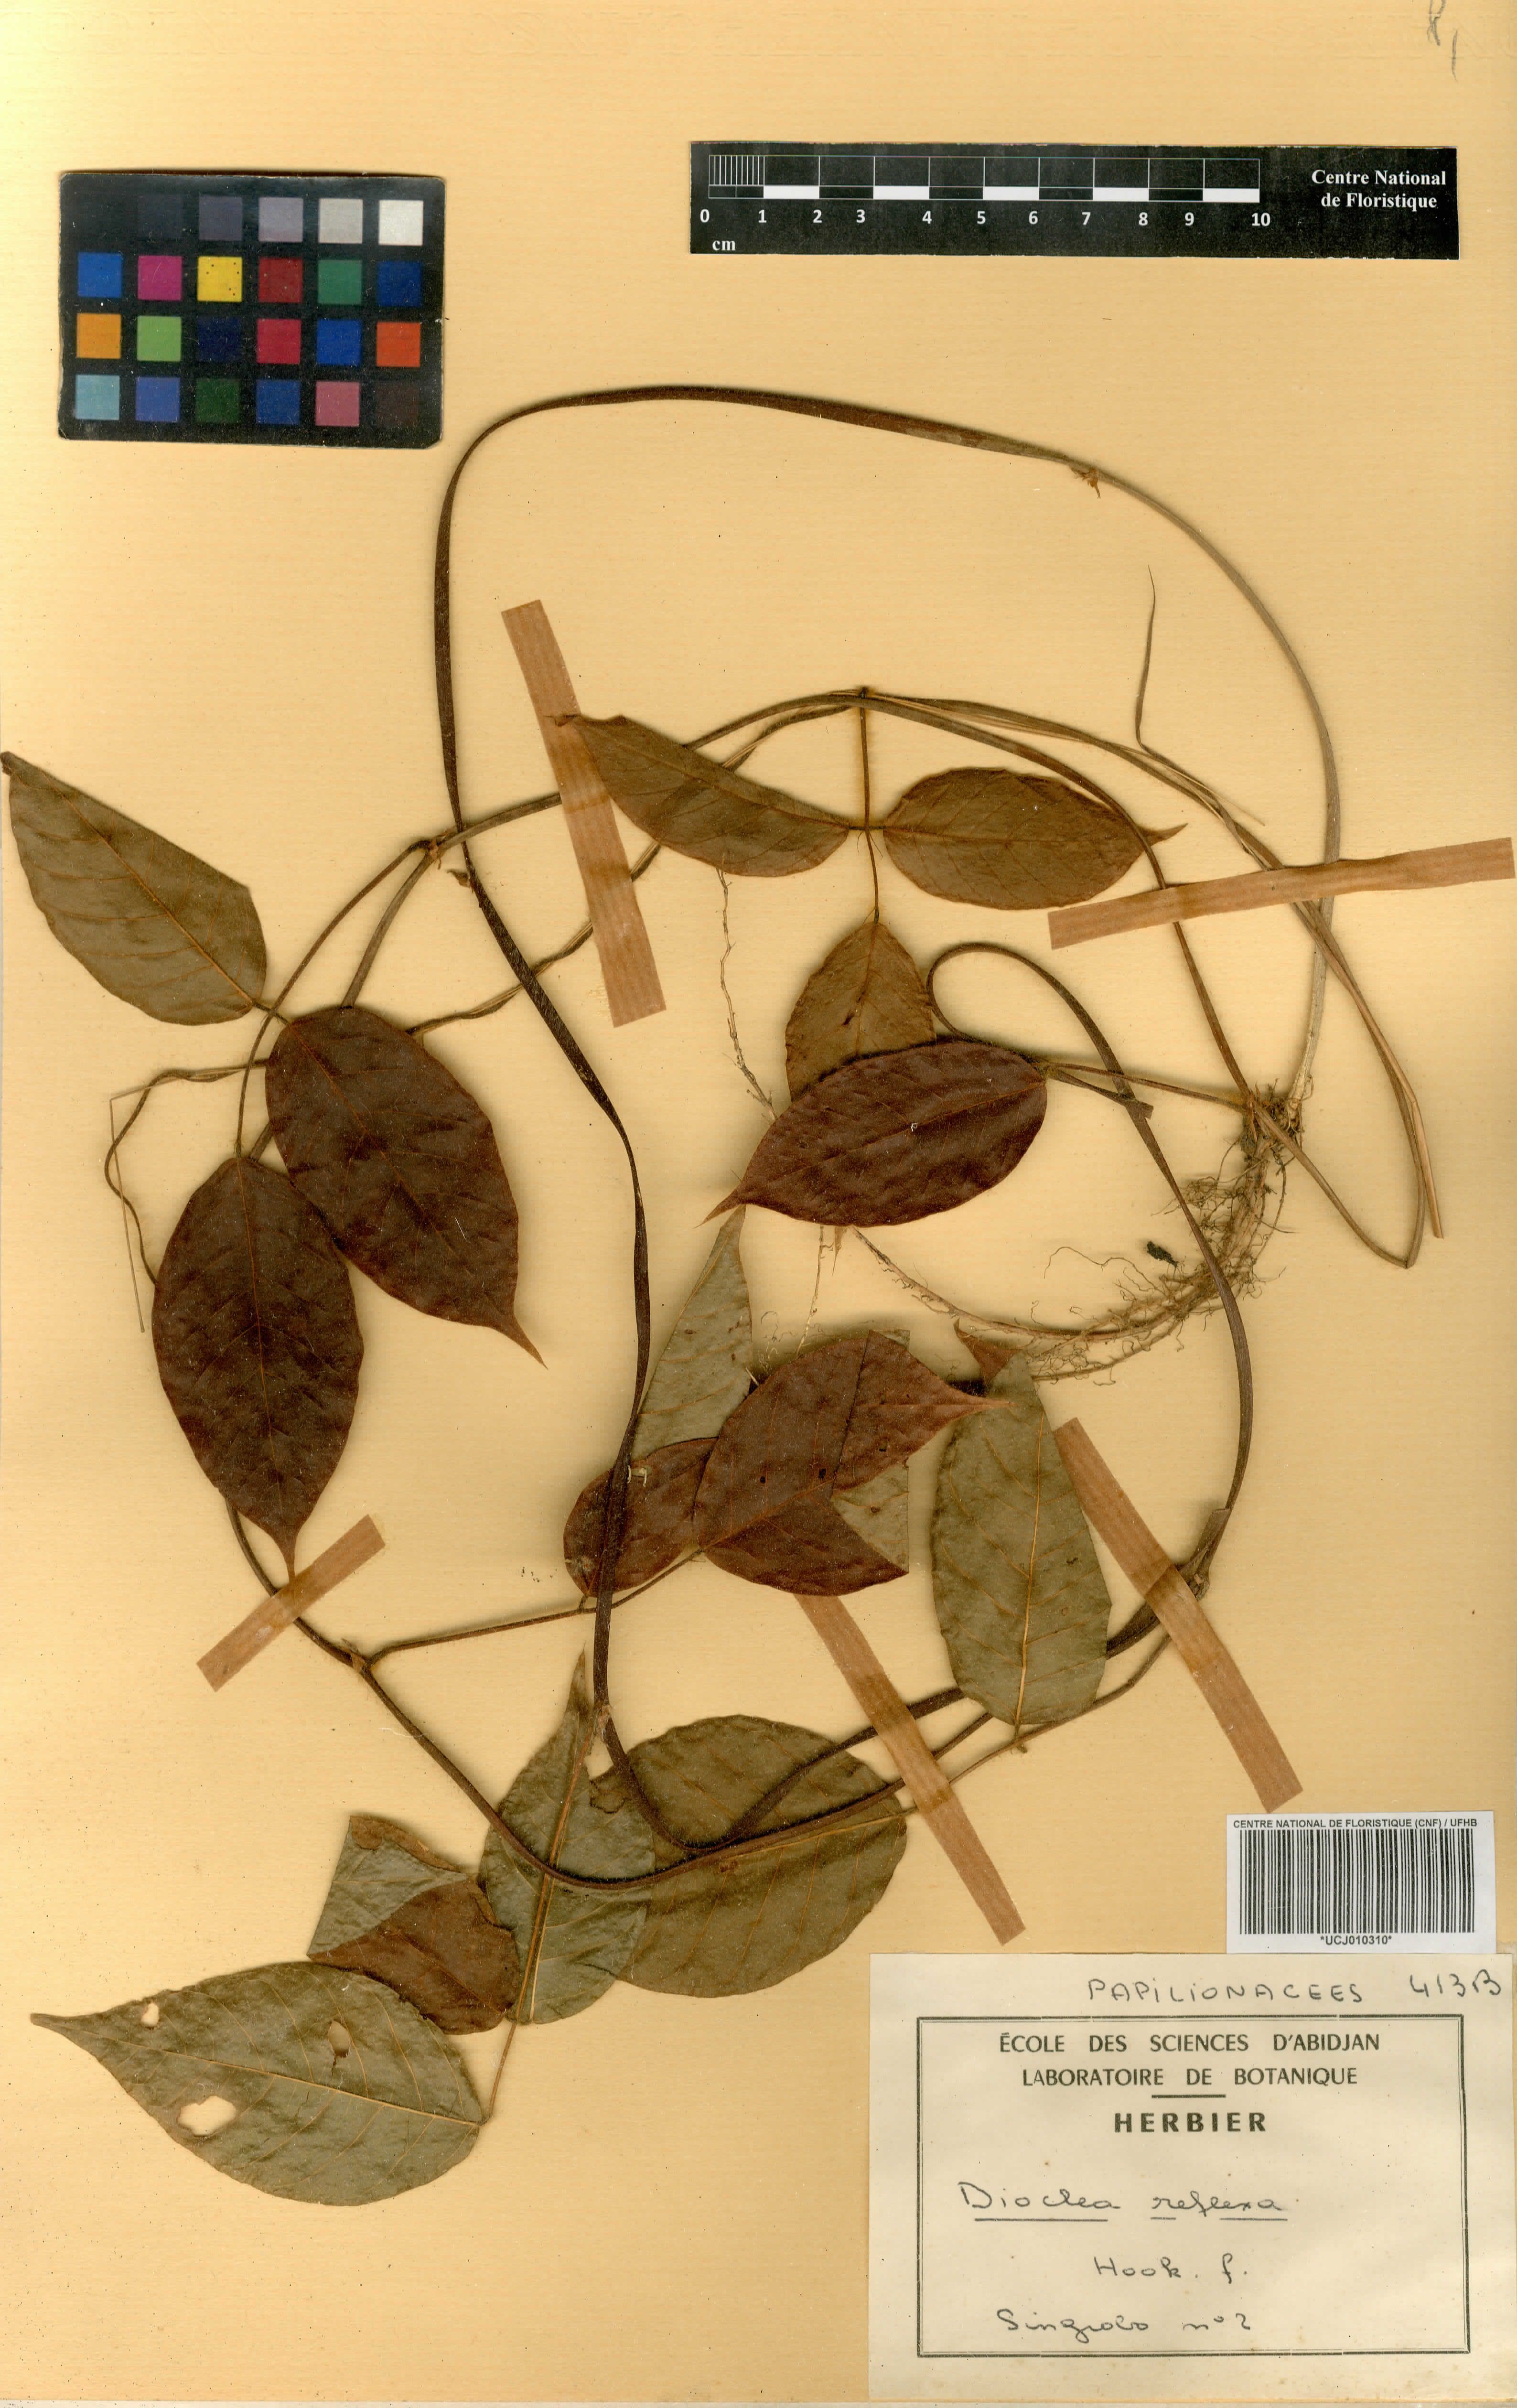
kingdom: Plantae
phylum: Tracheophyta
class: Magnoliopsida
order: Fabales
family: Fabaceae
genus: Macropsychanthus
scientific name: Macropsychanthus comosus
